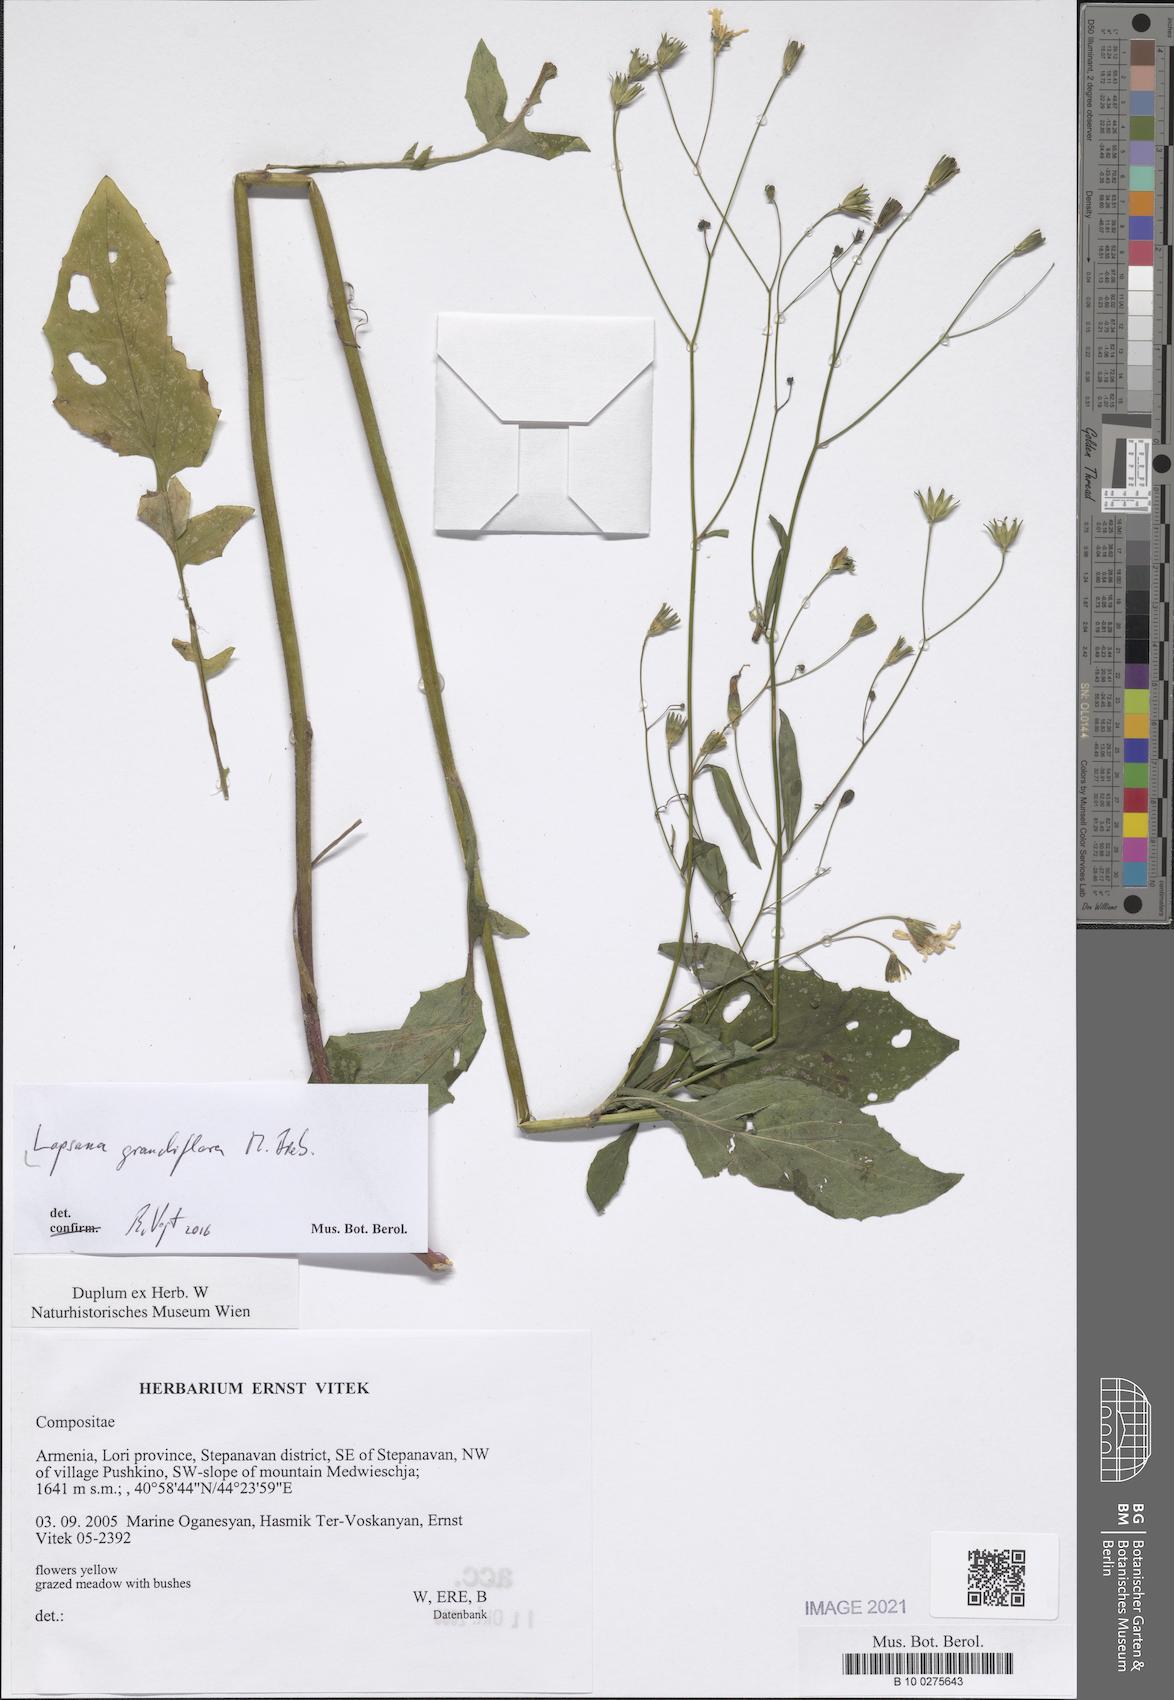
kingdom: Plantae
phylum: Tracheophyta
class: Magnoliopsida
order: Asterales
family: Asteraceae
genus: Lapsana
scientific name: Lapsana communis
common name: Nipplewort
